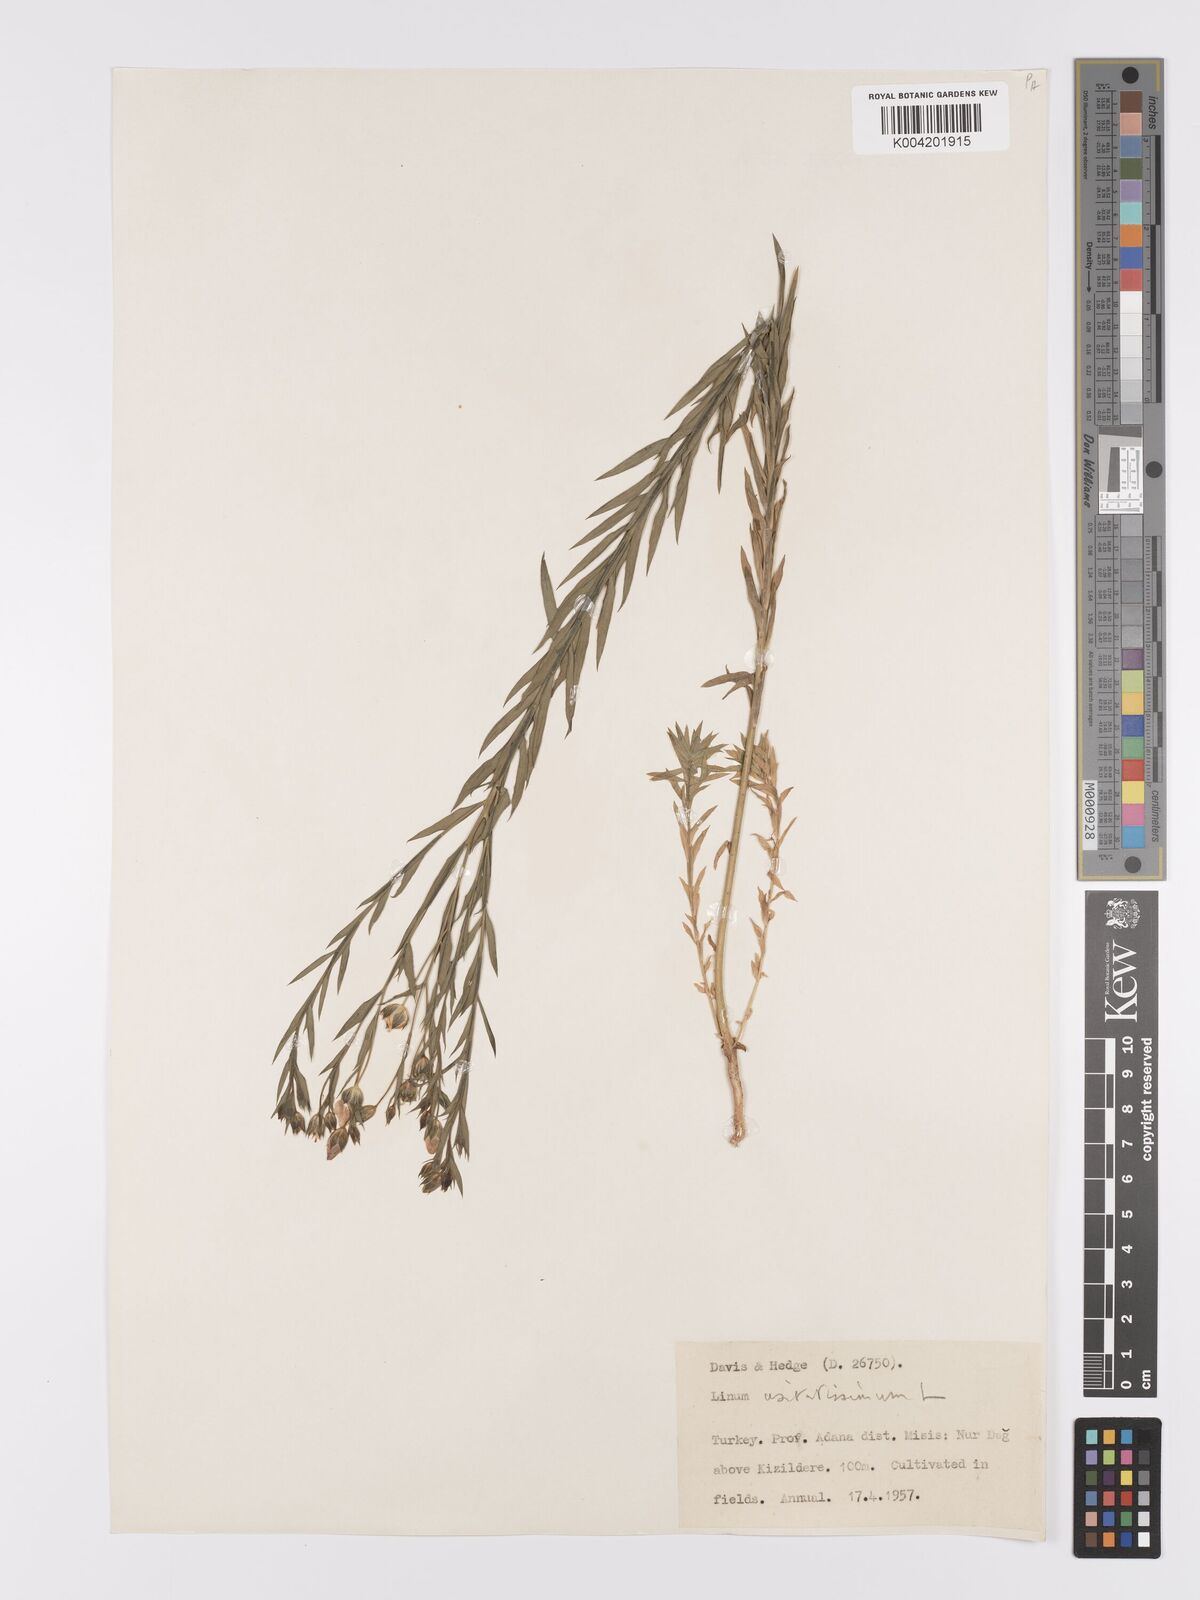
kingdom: Plantae
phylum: Tracheophyta
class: Magnoliopsida
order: Malpighiales
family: Linaceae
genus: Linum
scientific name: Linum
